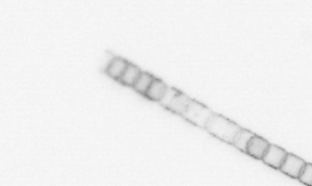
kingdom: Chromista
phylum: Ochrophyta
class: Bacillariophyceae
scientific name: Bacillariophyceae
